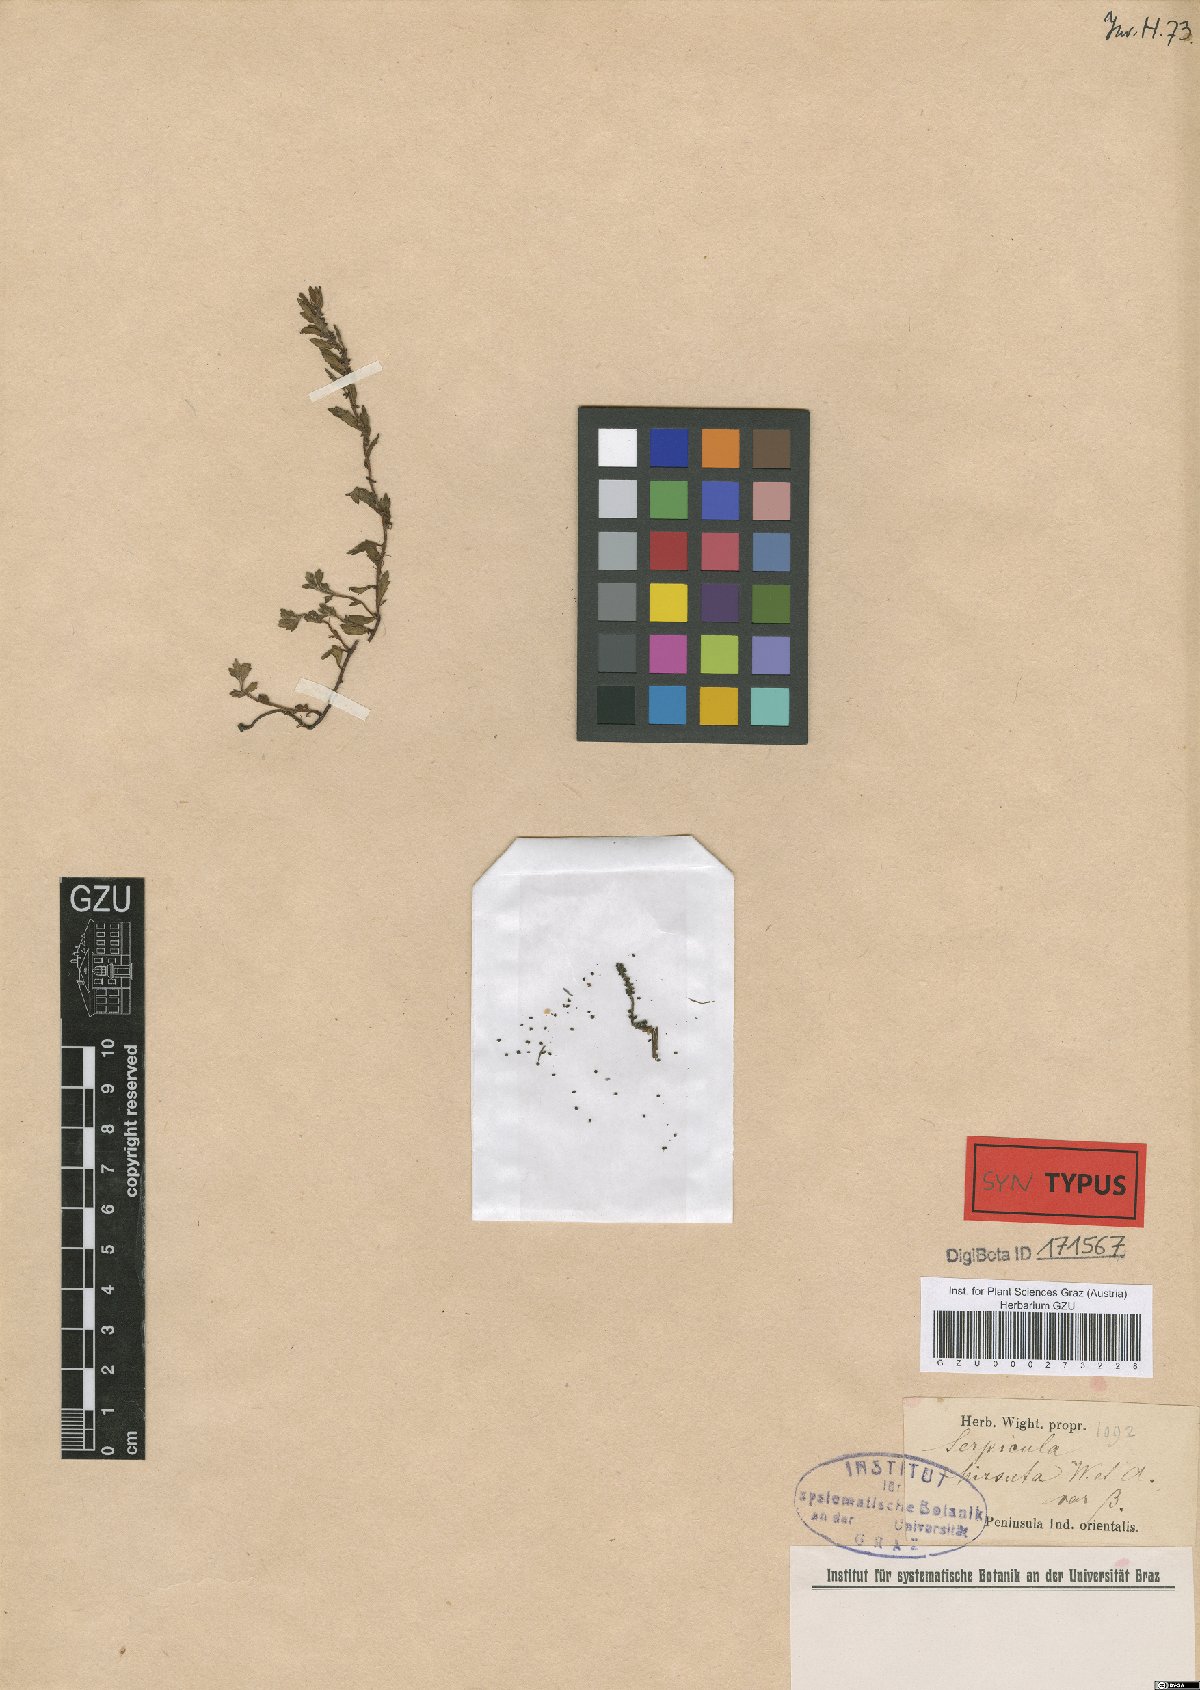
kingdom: Plantae
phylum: Tracheophyta
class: Magnoliopsida
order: Saxifragales
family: Haloragaceae
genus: Laurembergia
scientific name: Laurembergia coccinea
